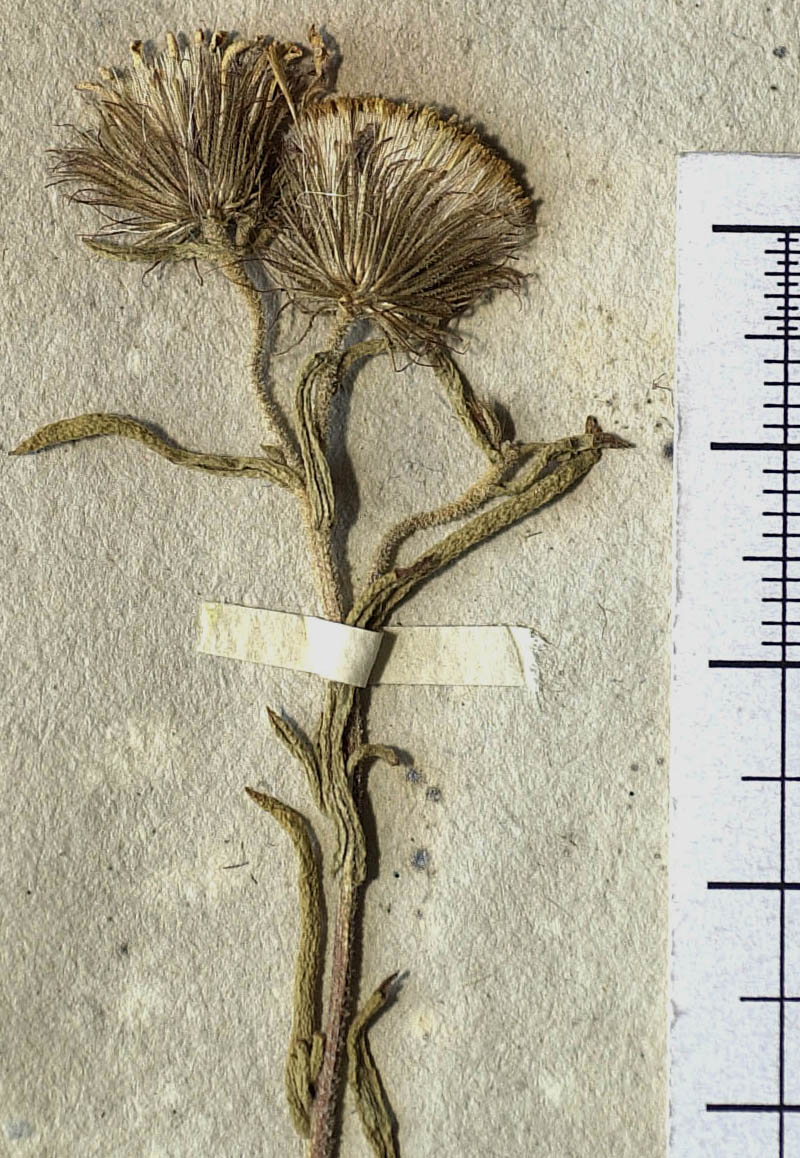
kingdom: Plantae
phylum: Tracheophyta
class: Magnoliopsida
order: Asterales
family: Asteraceae
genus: Asteridea
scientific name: Asteridea pulverulenta
